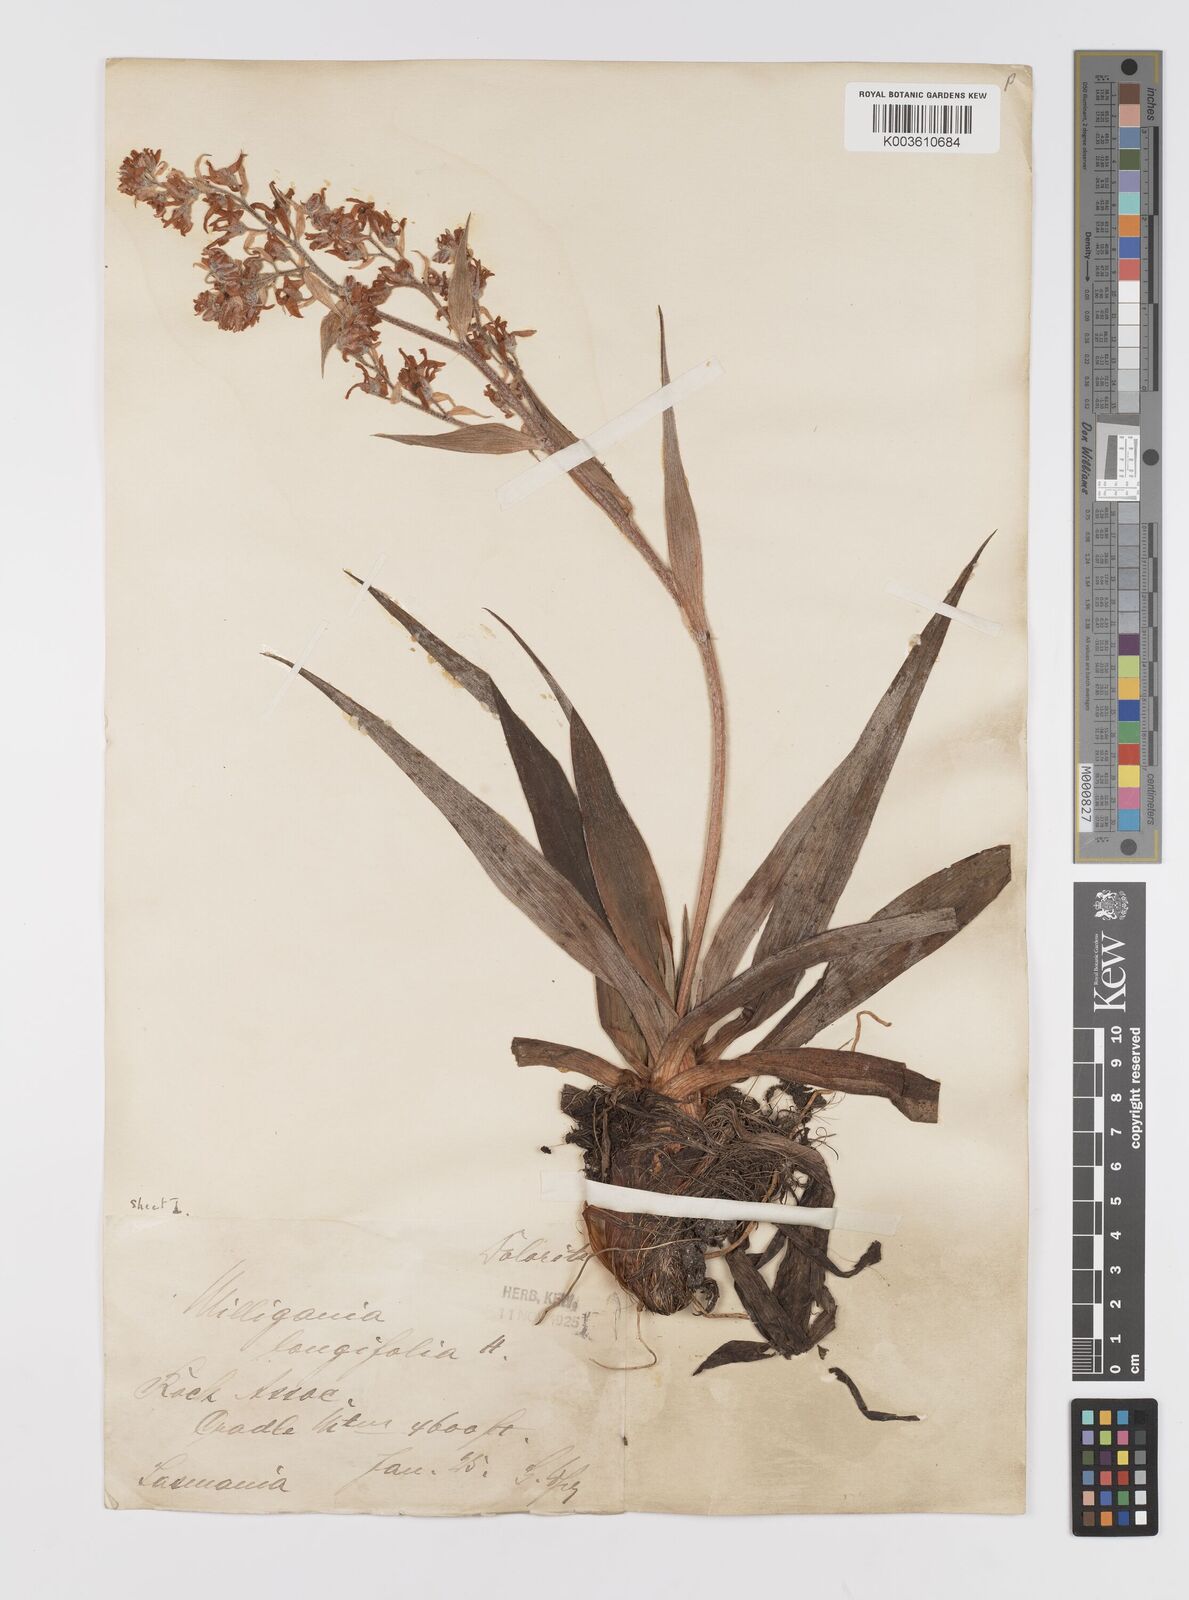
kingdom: Plantae
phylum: Tracheophyta
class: Liliopsida
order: Asparagales
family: Asteliaceae
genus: Milligania
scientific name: Milligania longifolia
